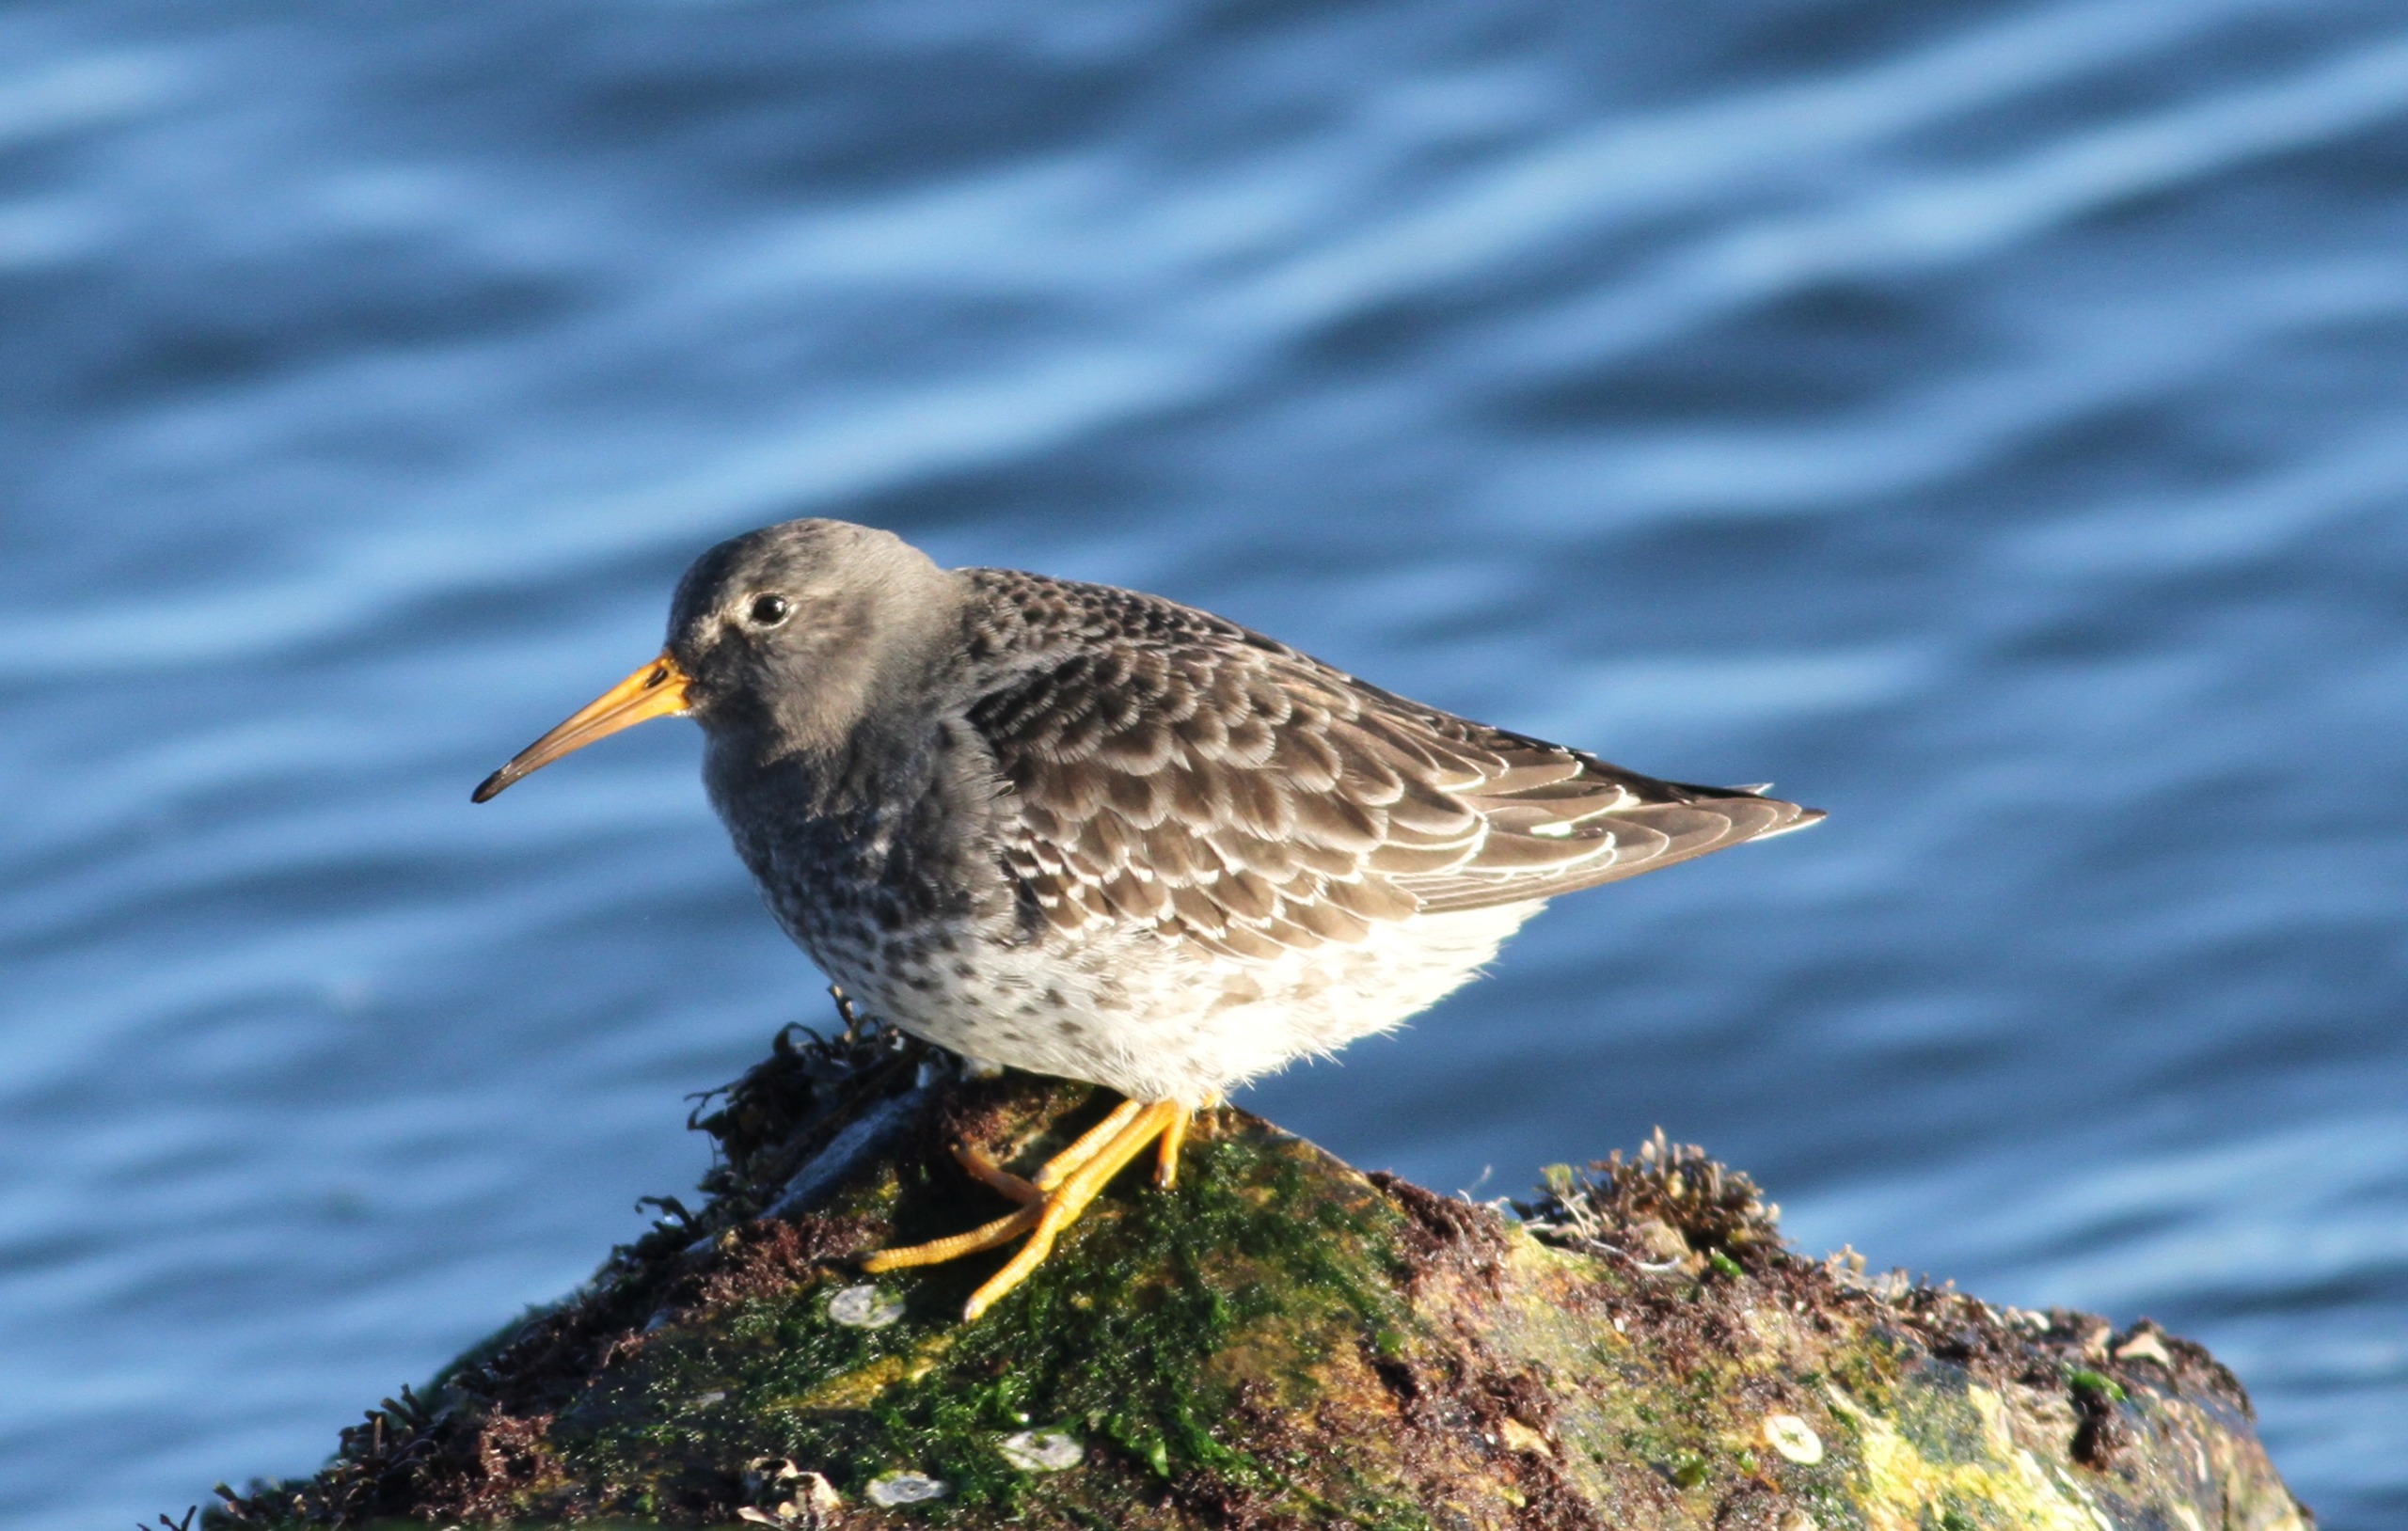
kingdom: Animalia
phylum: Chordata
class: Aves
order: Charadriiformes
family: Scolopacidae
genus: Calidris
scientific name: Calidris maritima
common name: Sortgrå ryle
